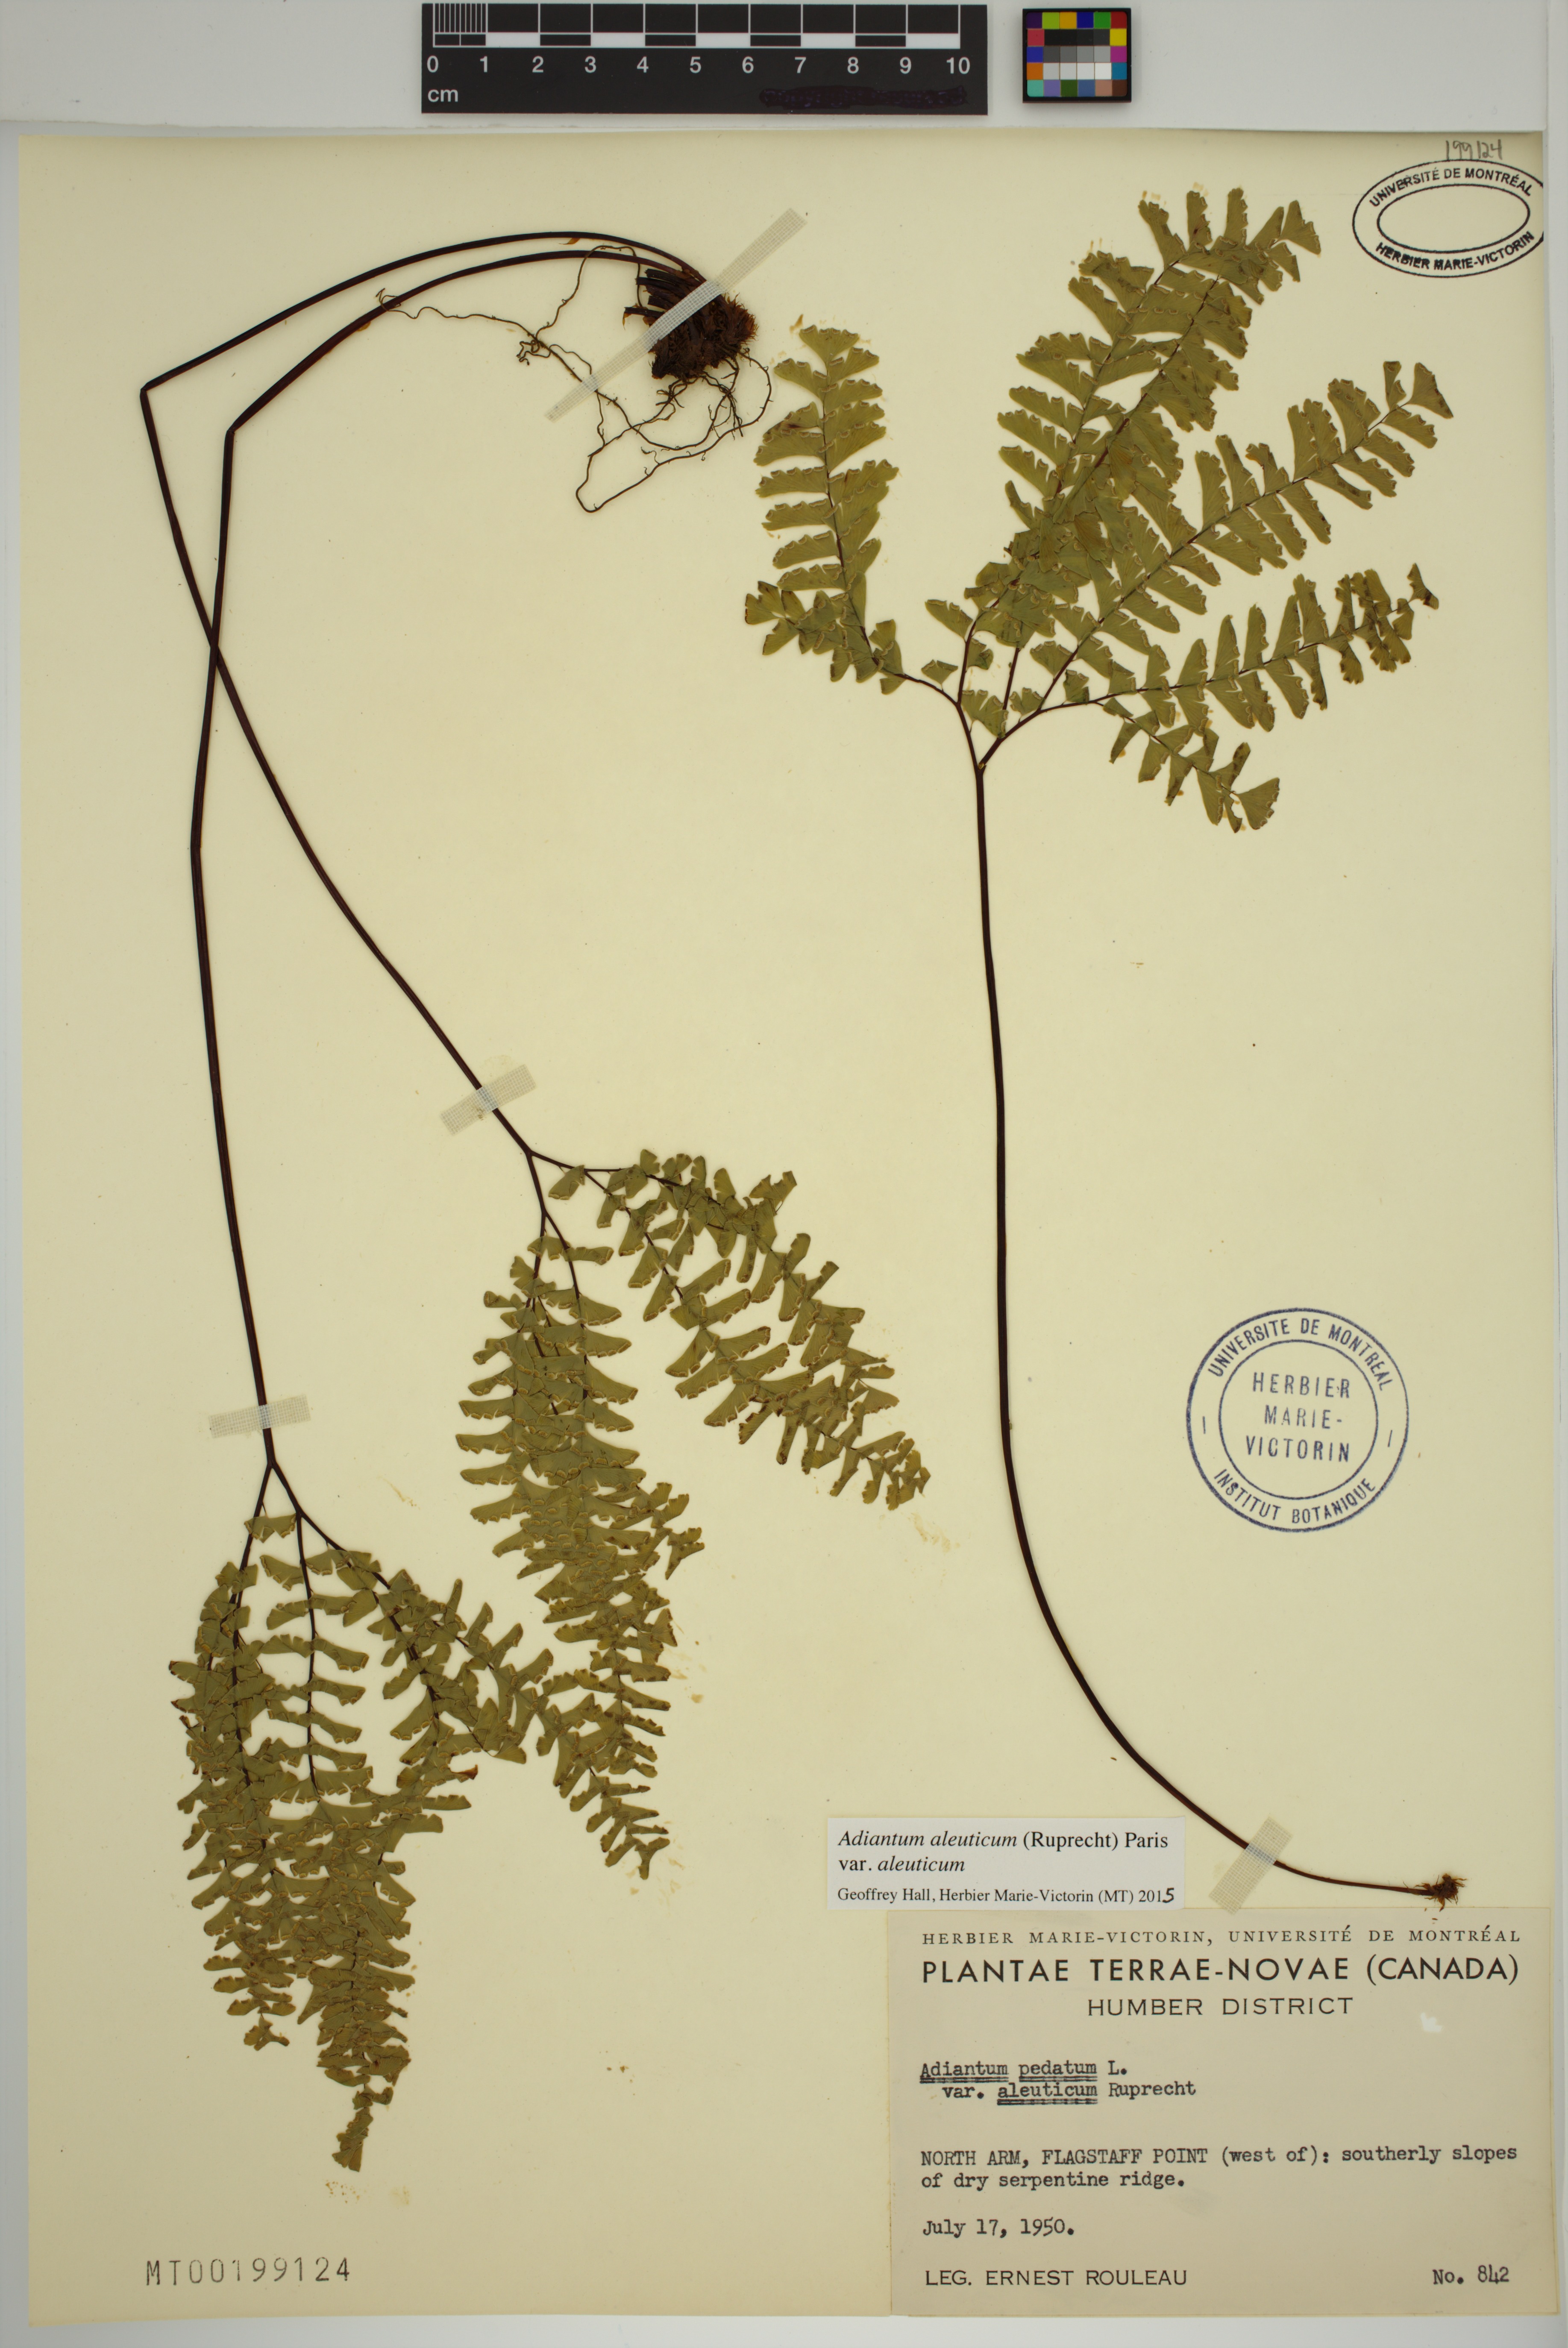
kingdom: Plantae
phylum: Tracheophyta
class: Polypodiopsida
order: Polypodiales
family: Pteridaceae
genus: Adiantum
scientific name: Adiantum aleuticum
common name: Aleutian maidenhair fern
